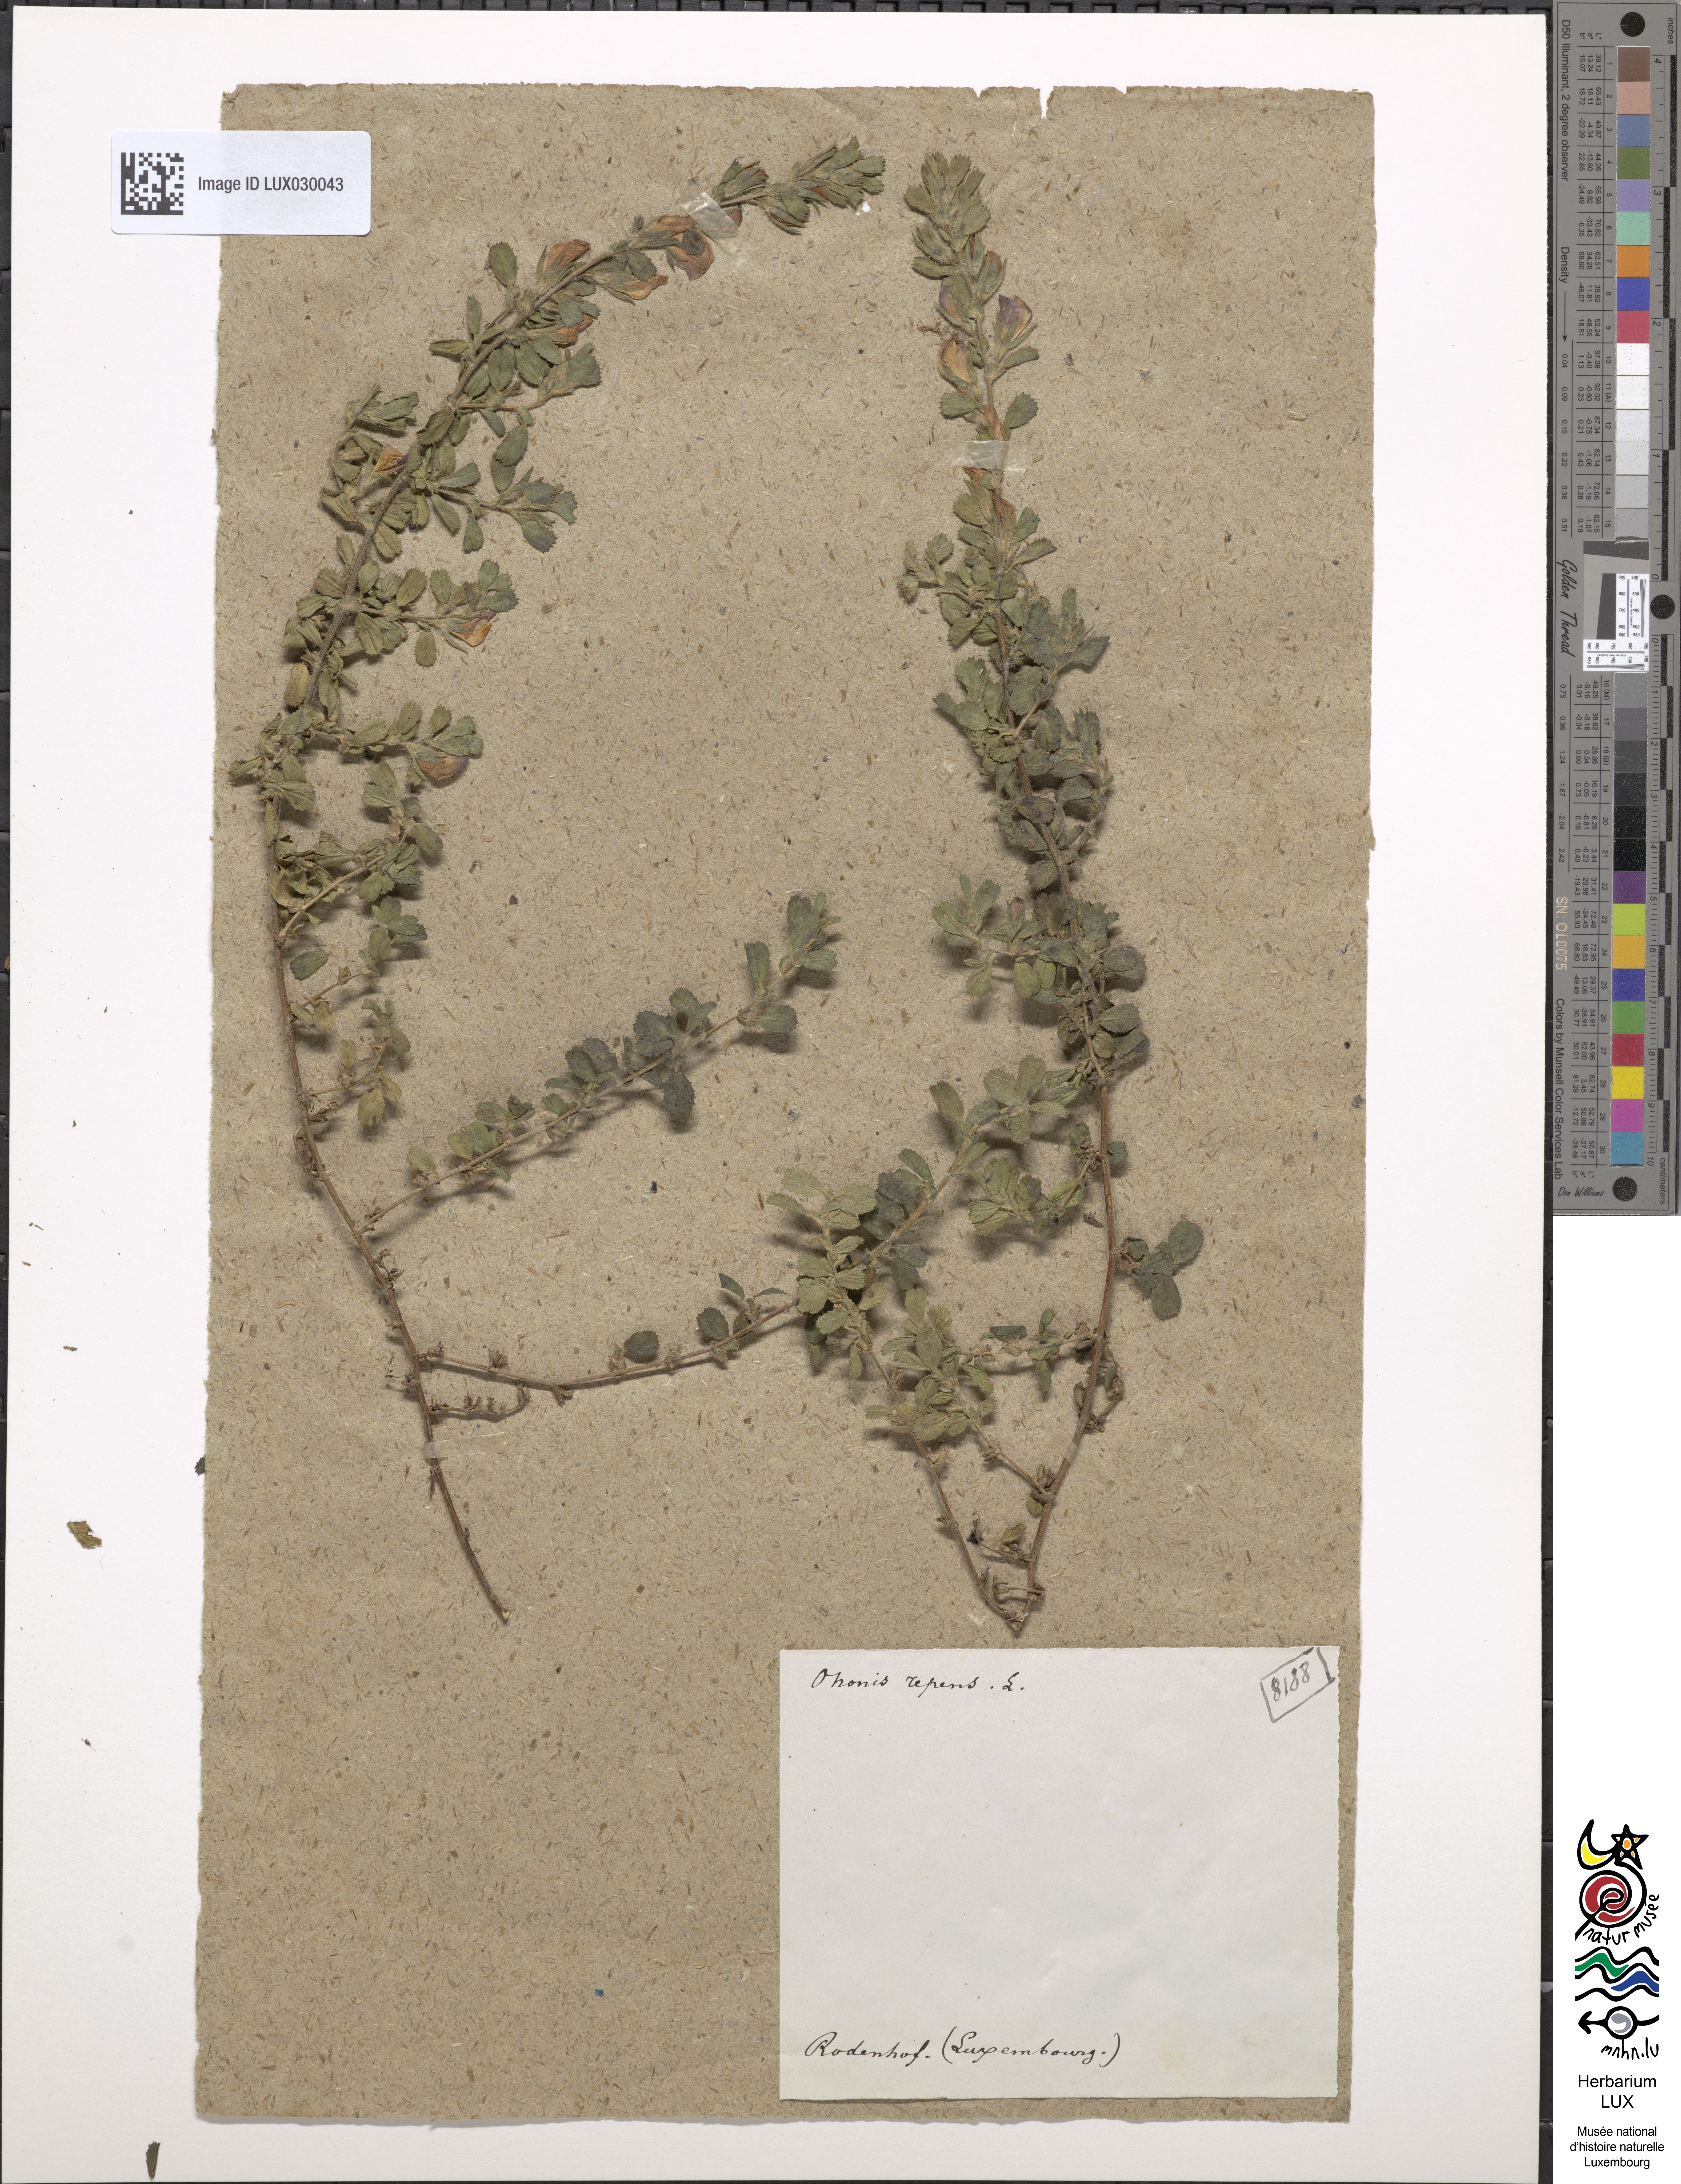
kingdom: Plantae
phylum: Tracheophyta
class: Magnoliopsida
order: Fabales
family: Fabaceae
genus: Ononis
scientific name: Ononis spinosa
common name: Spiny restharrow
